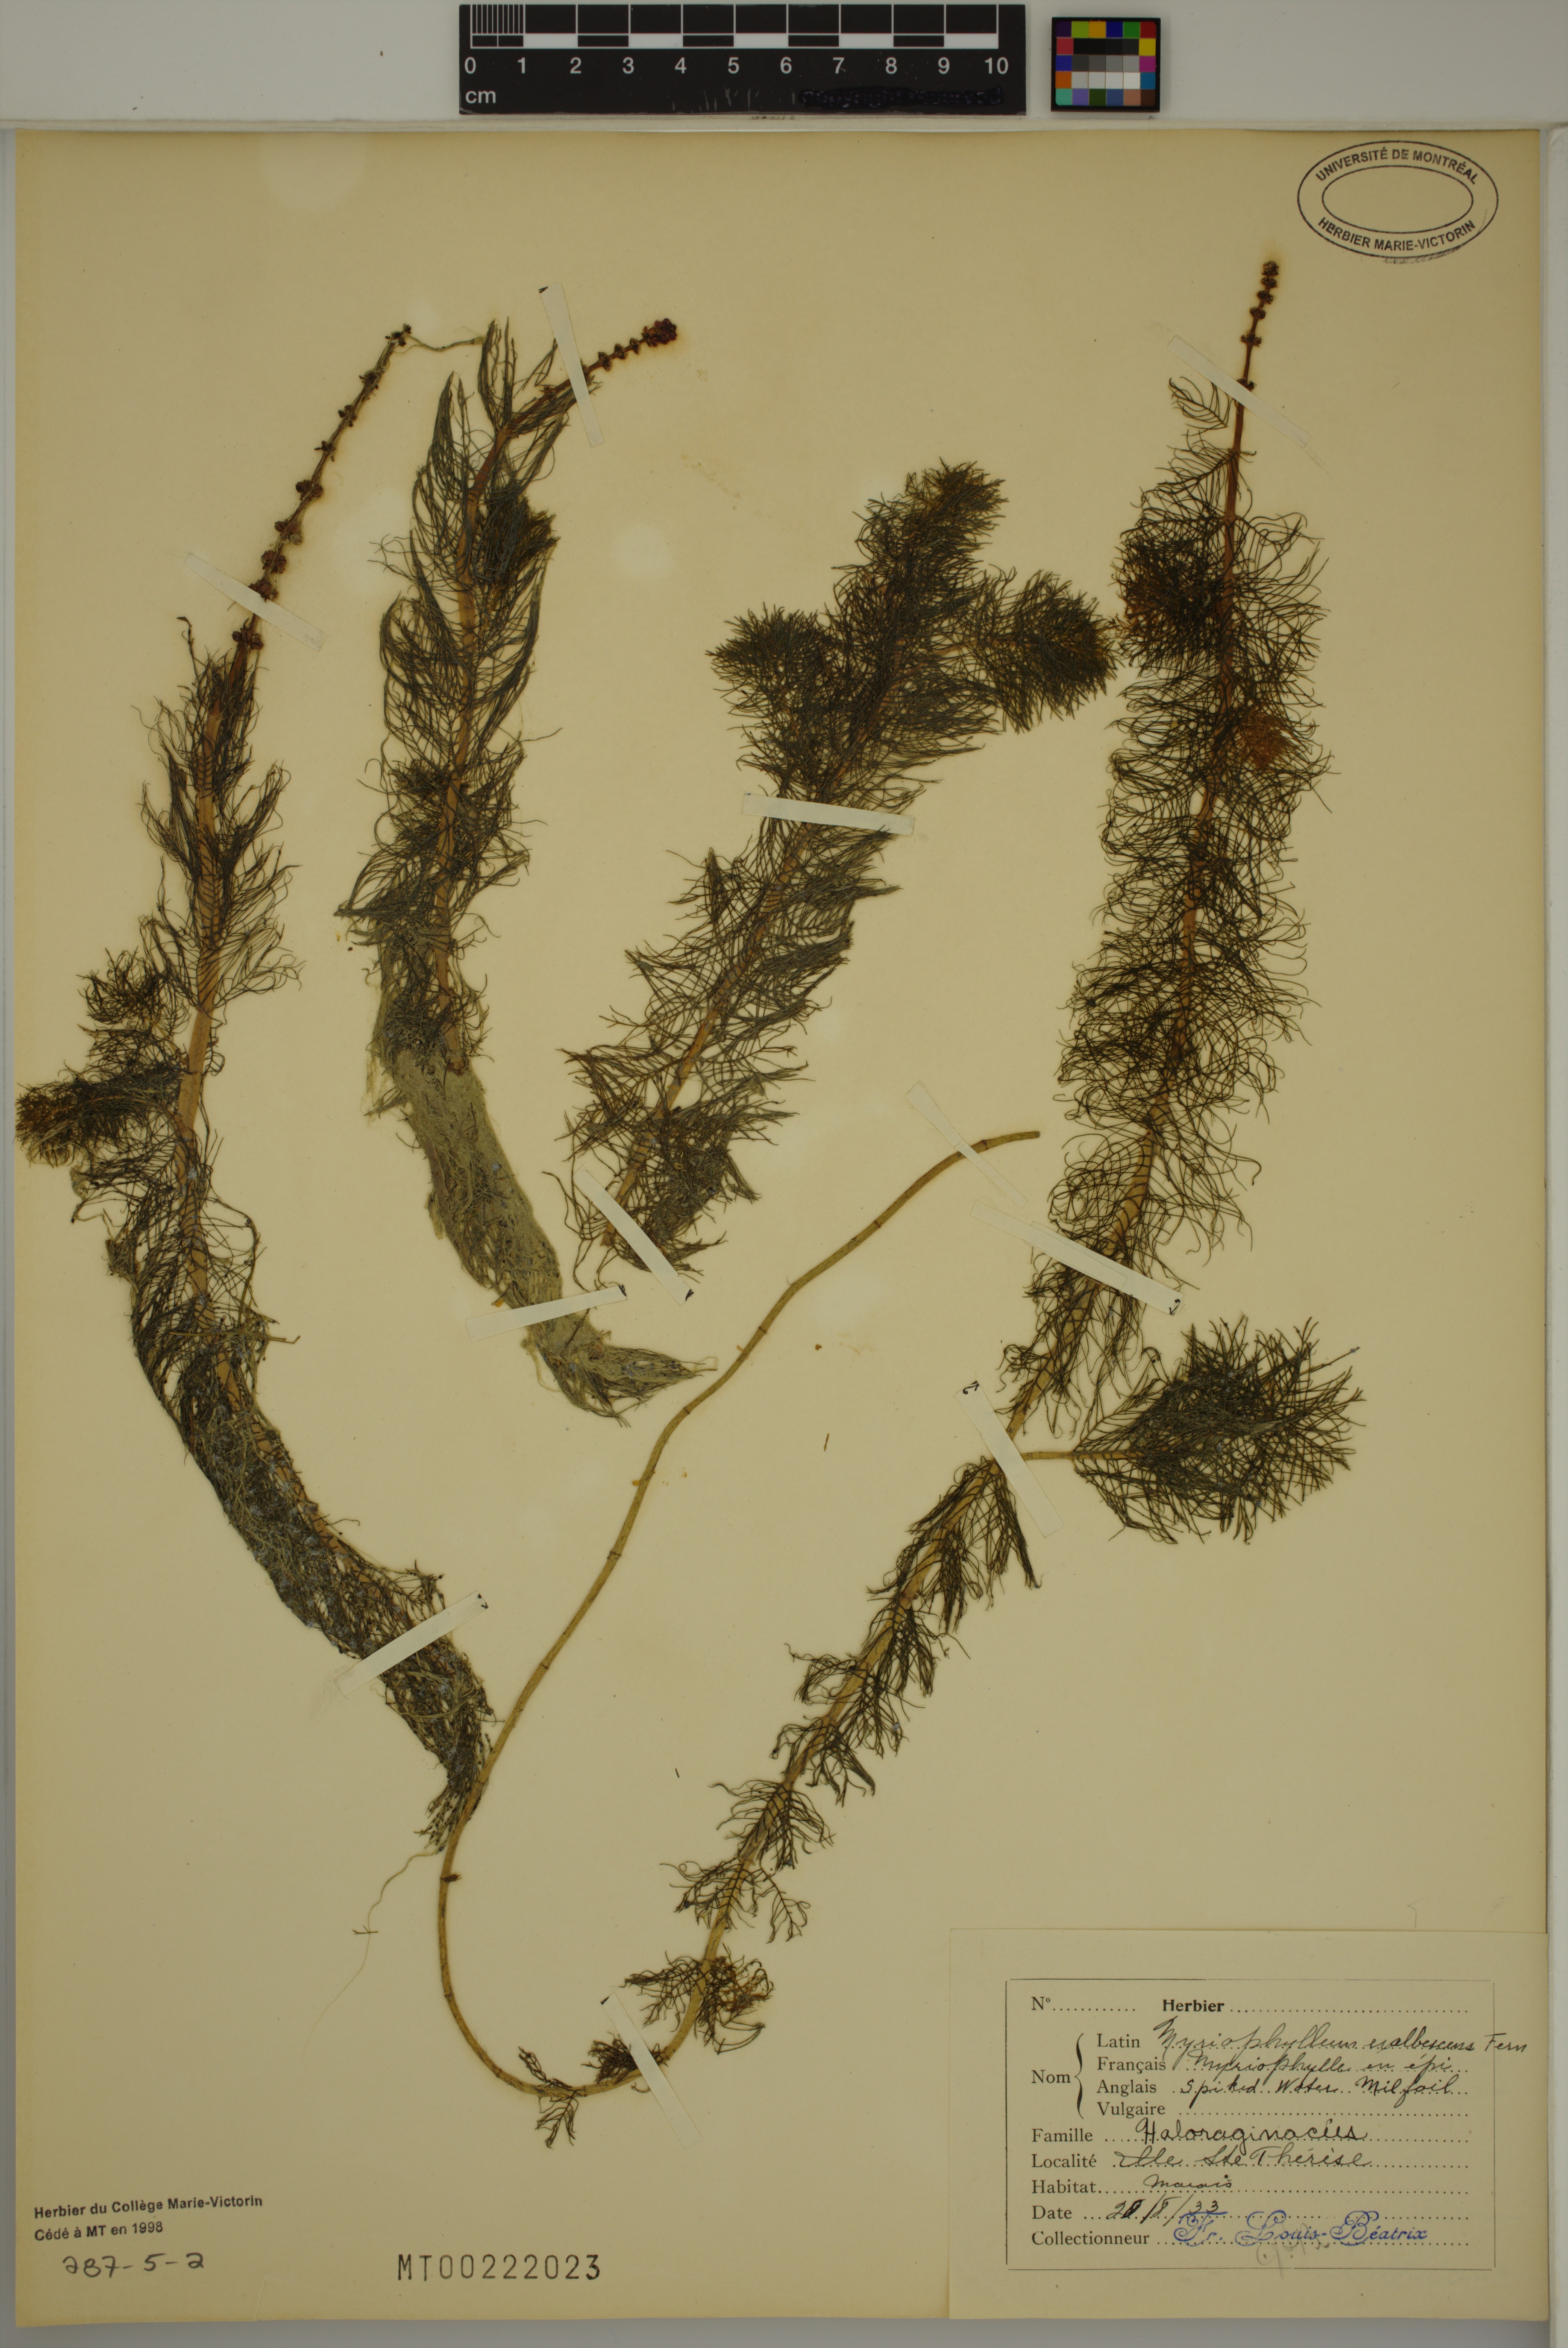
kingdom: Plantae
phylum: Tracheophyta
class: Magnoliopsida
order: Saxifragales
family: Haloragaceae
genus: Myriophyllum
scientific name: Myriophyllum sibiricum
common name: Siberian water-milfoil
